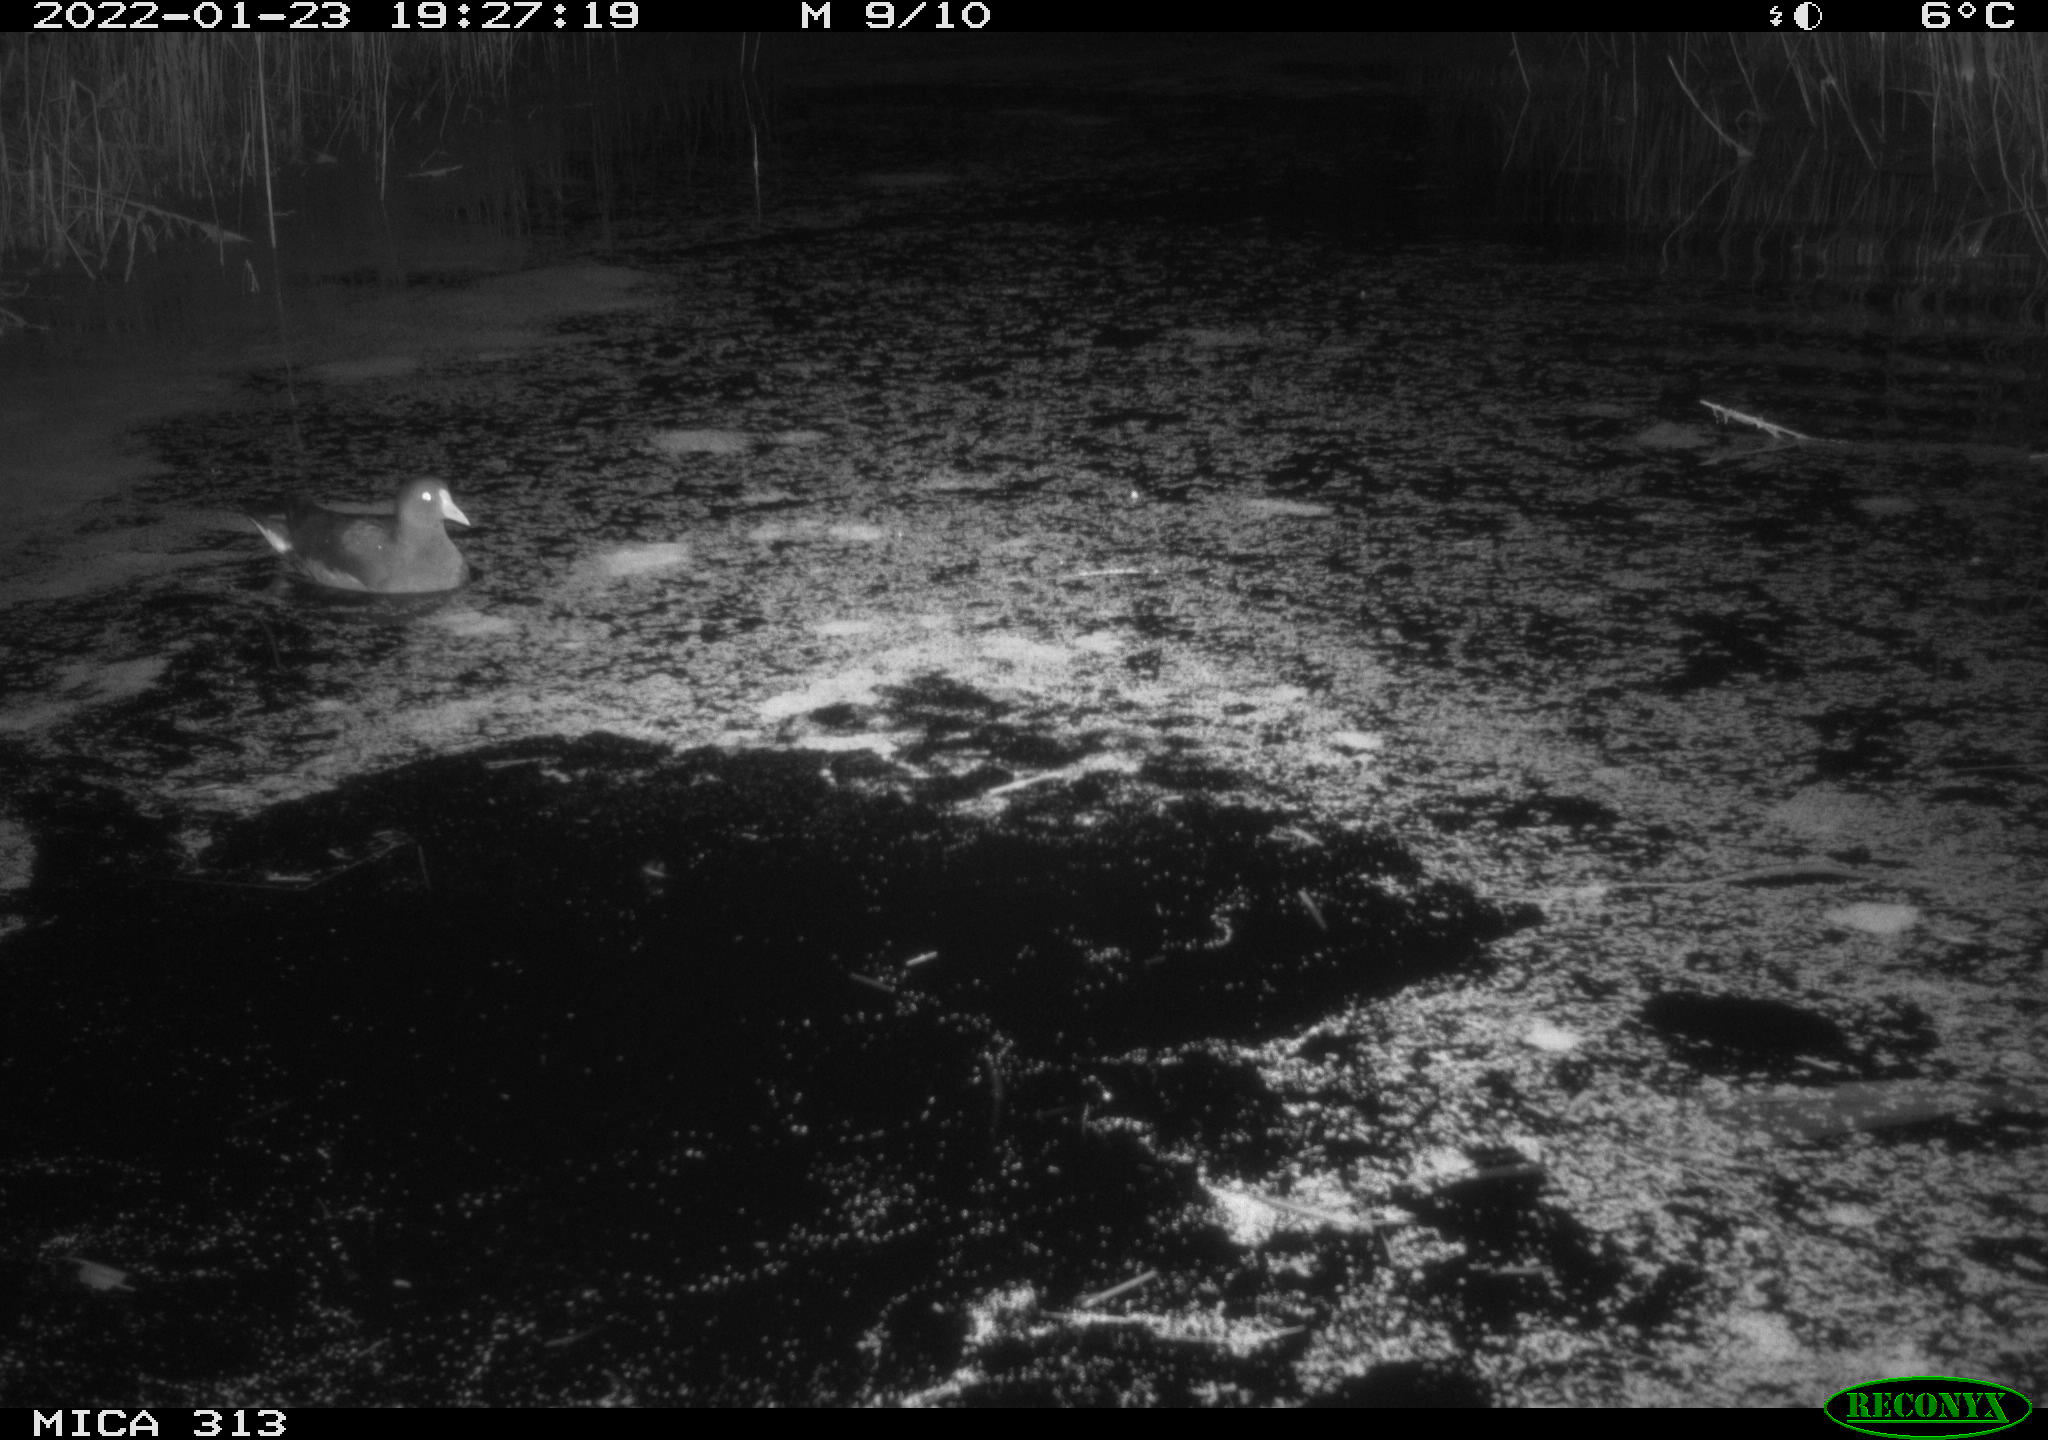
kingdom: Animalia
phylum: Chordata
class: Aves
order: Gruiformes
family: Rallidae
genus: Gallinula
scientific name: Gallinula chloropus
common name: Common moorhen
